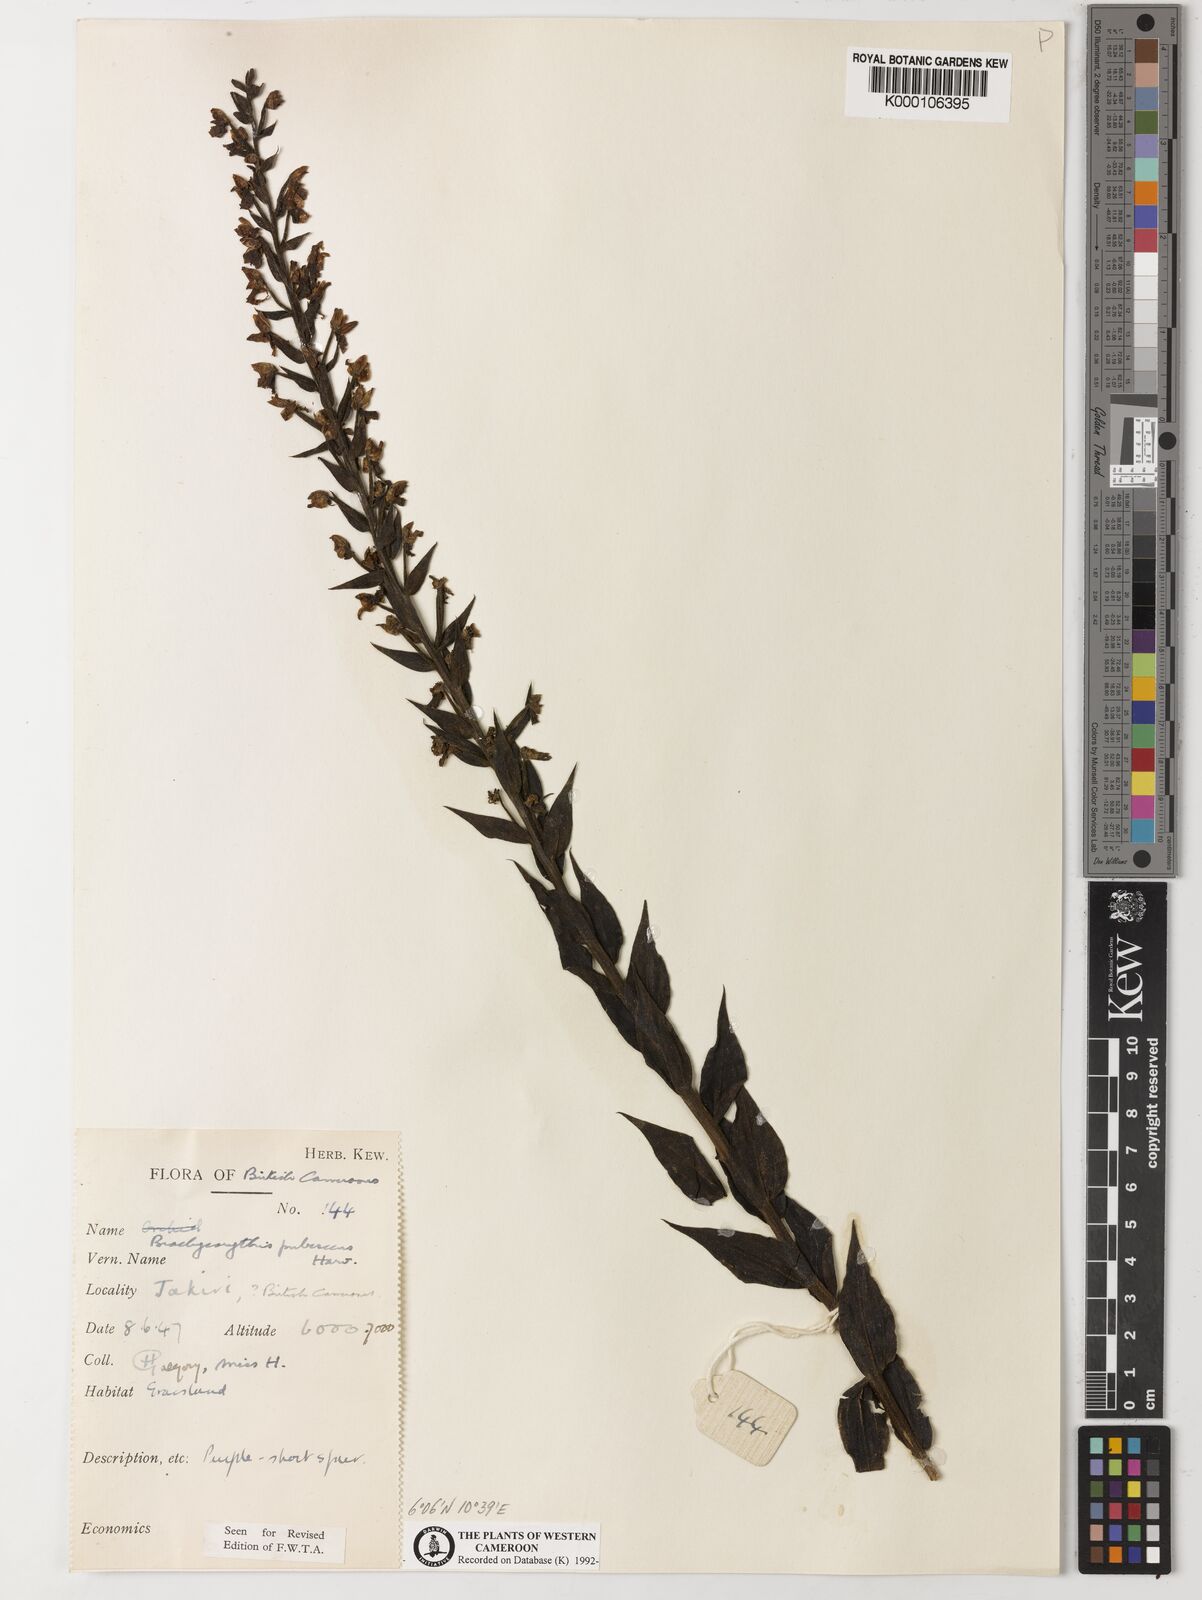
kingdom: Plantae
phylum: Tracheophyta
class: Liliopsida
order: Asparagales
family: Orchidaceae
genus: Brachycorythis
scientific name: Brachycorythis pubescens
